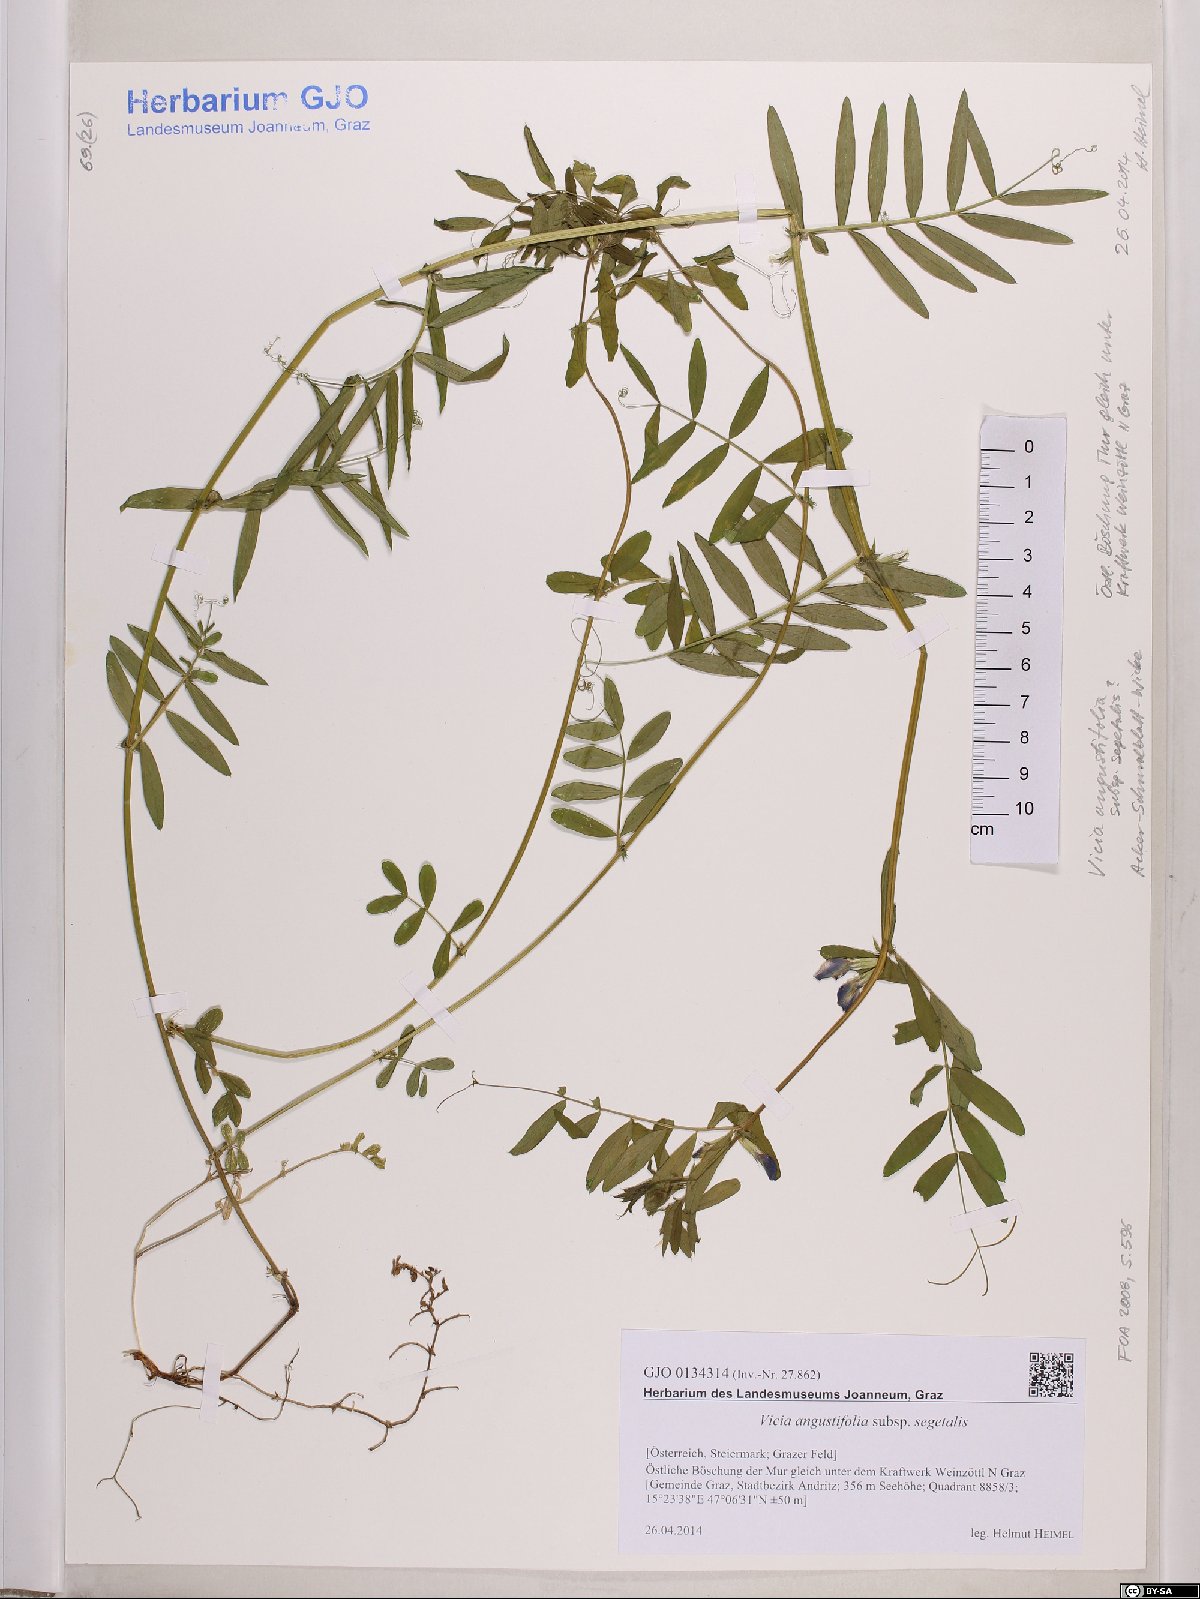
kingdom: Plantae
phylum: Tracheophyta
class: Magnoliopsida
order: Fabales
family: Fabaceae
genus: Vicia
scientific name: Vicia sativa
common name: Garden vetch
